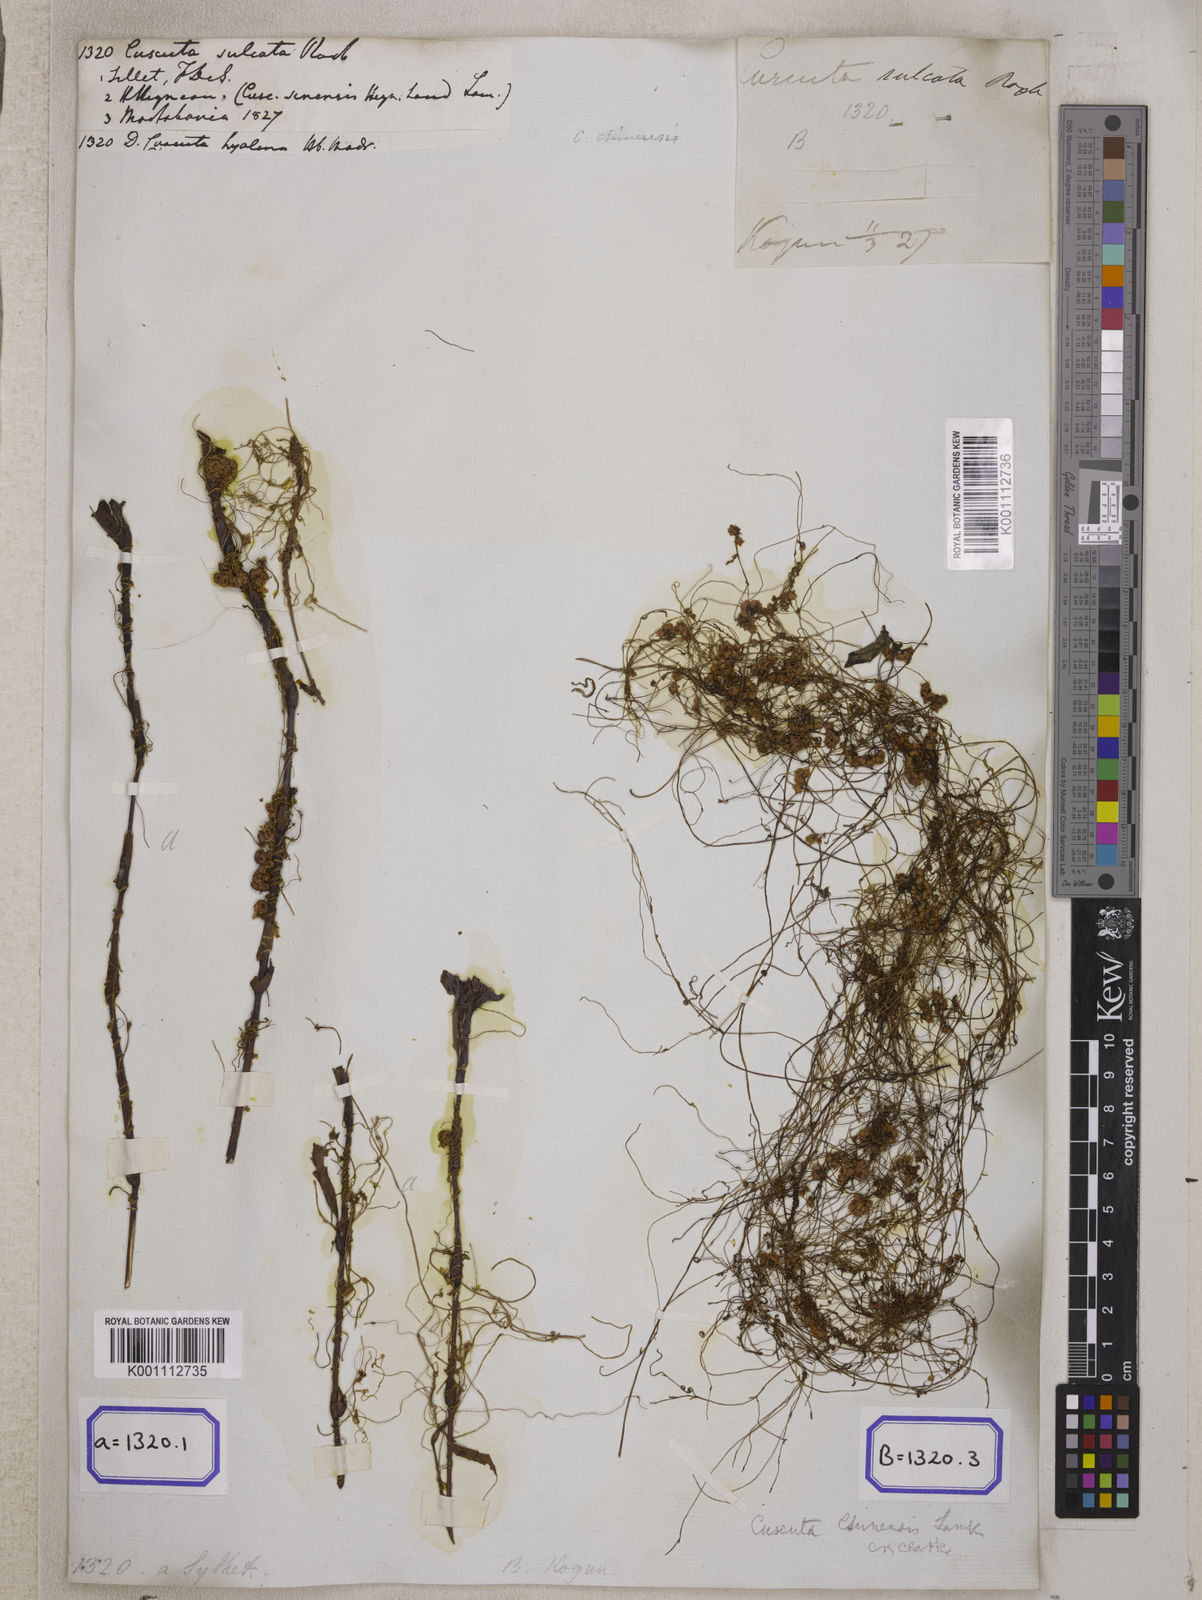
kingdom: Plantae
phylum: Tracheophyta
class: Magnoliopsida
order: Solanales
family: Convolvulaceae
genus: Cuscuta
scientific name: Cuscuta chinensis
